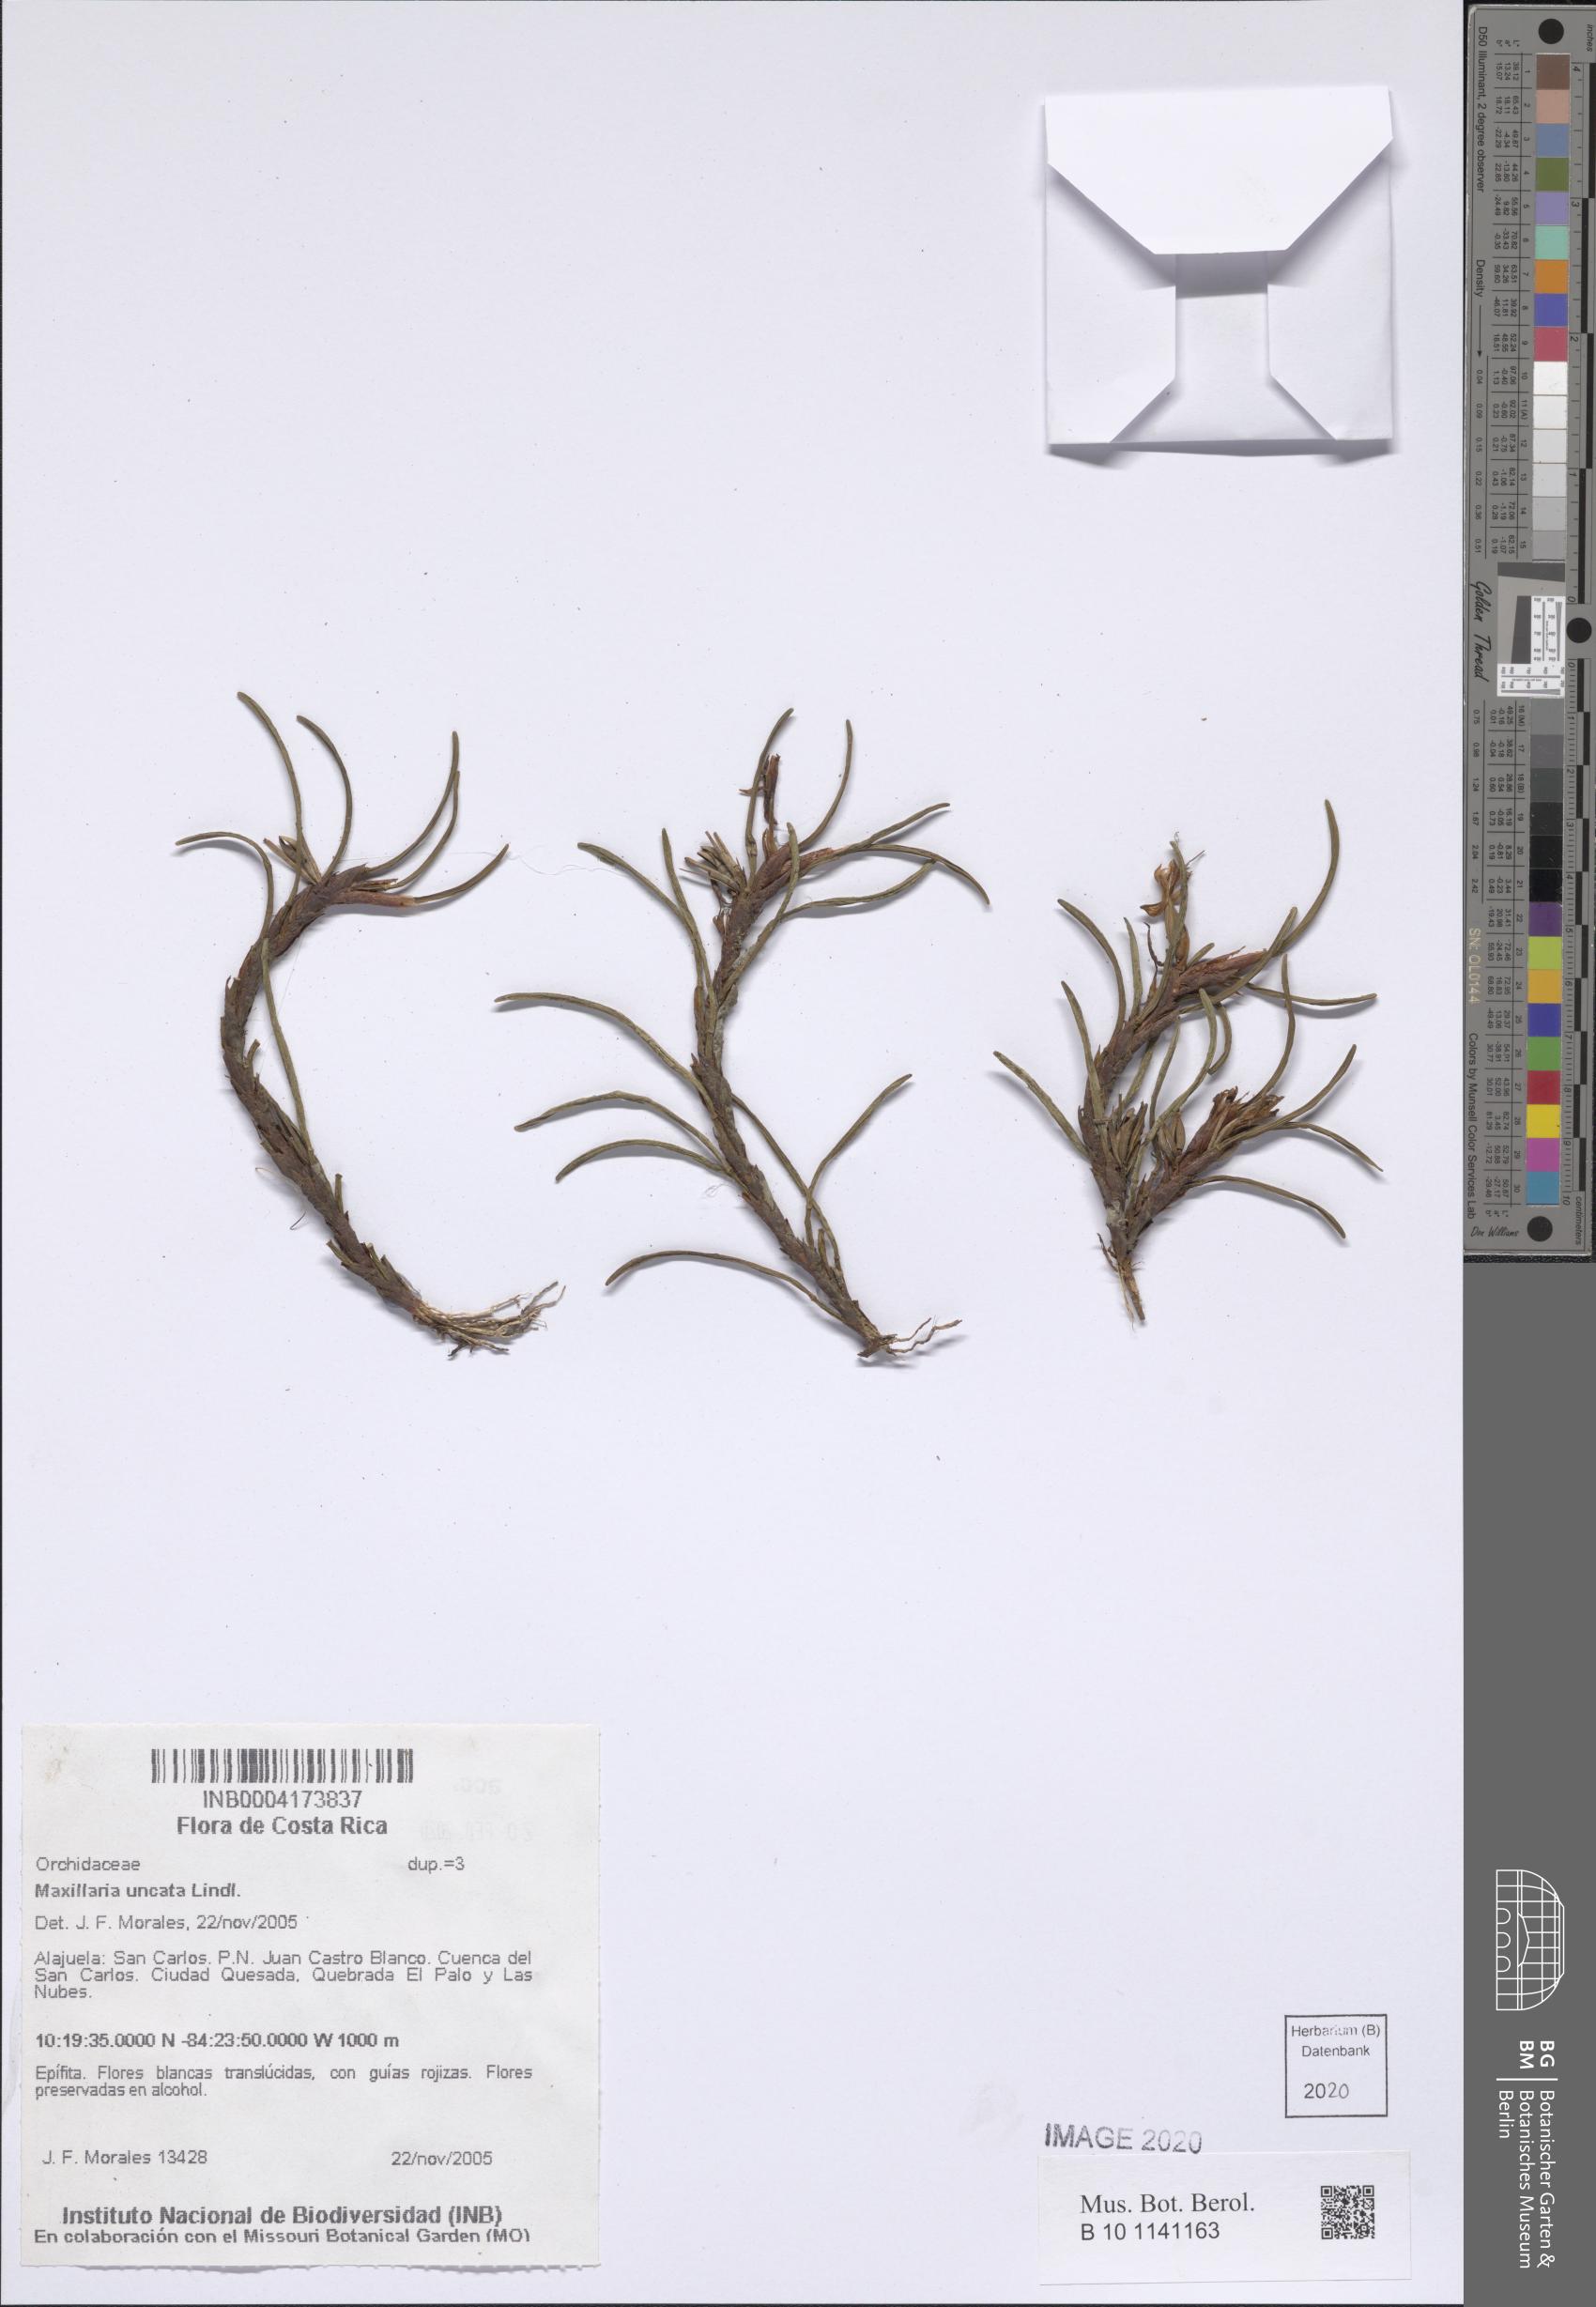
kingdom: Plantae
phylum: Tracheophyta
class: Liliopsida
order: Asparagales
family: Orchidaceae
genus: Maxillaria
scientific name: Maxillaria uncata
